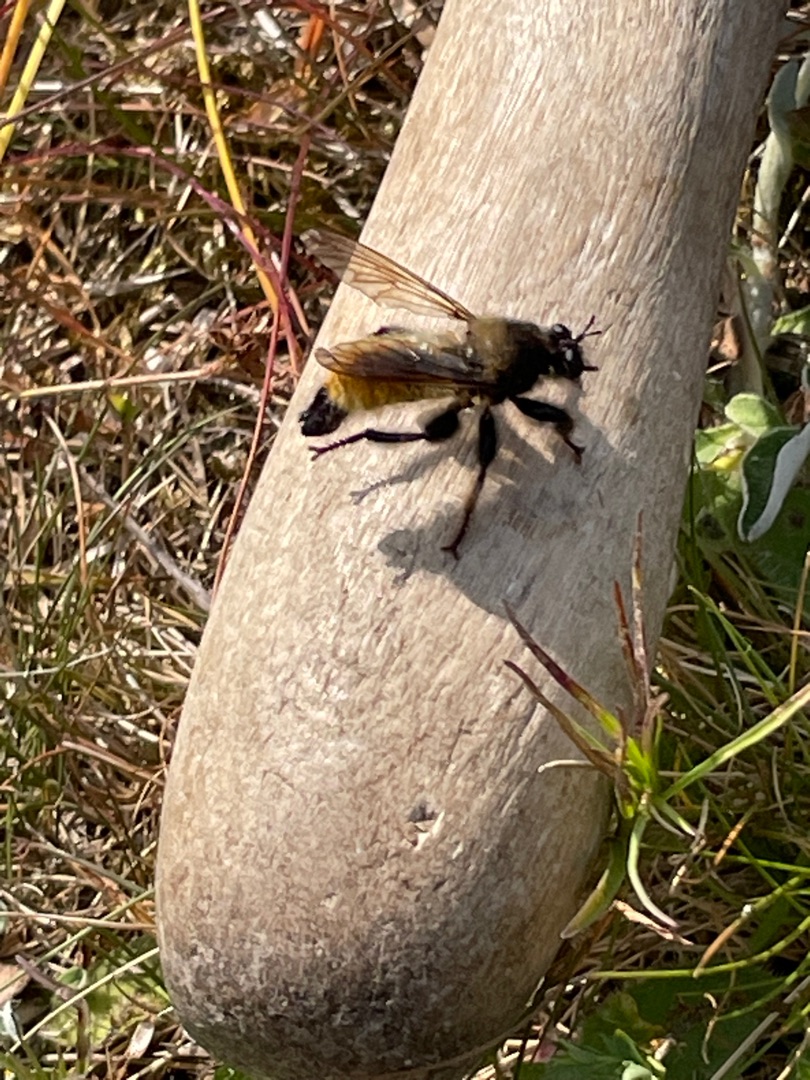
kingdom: Animalia
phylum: Arthropoda
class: Insecta
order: Diptera
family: Asilidae
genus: Laphria
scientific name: Laphria flava
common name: Gul vedrovflue
